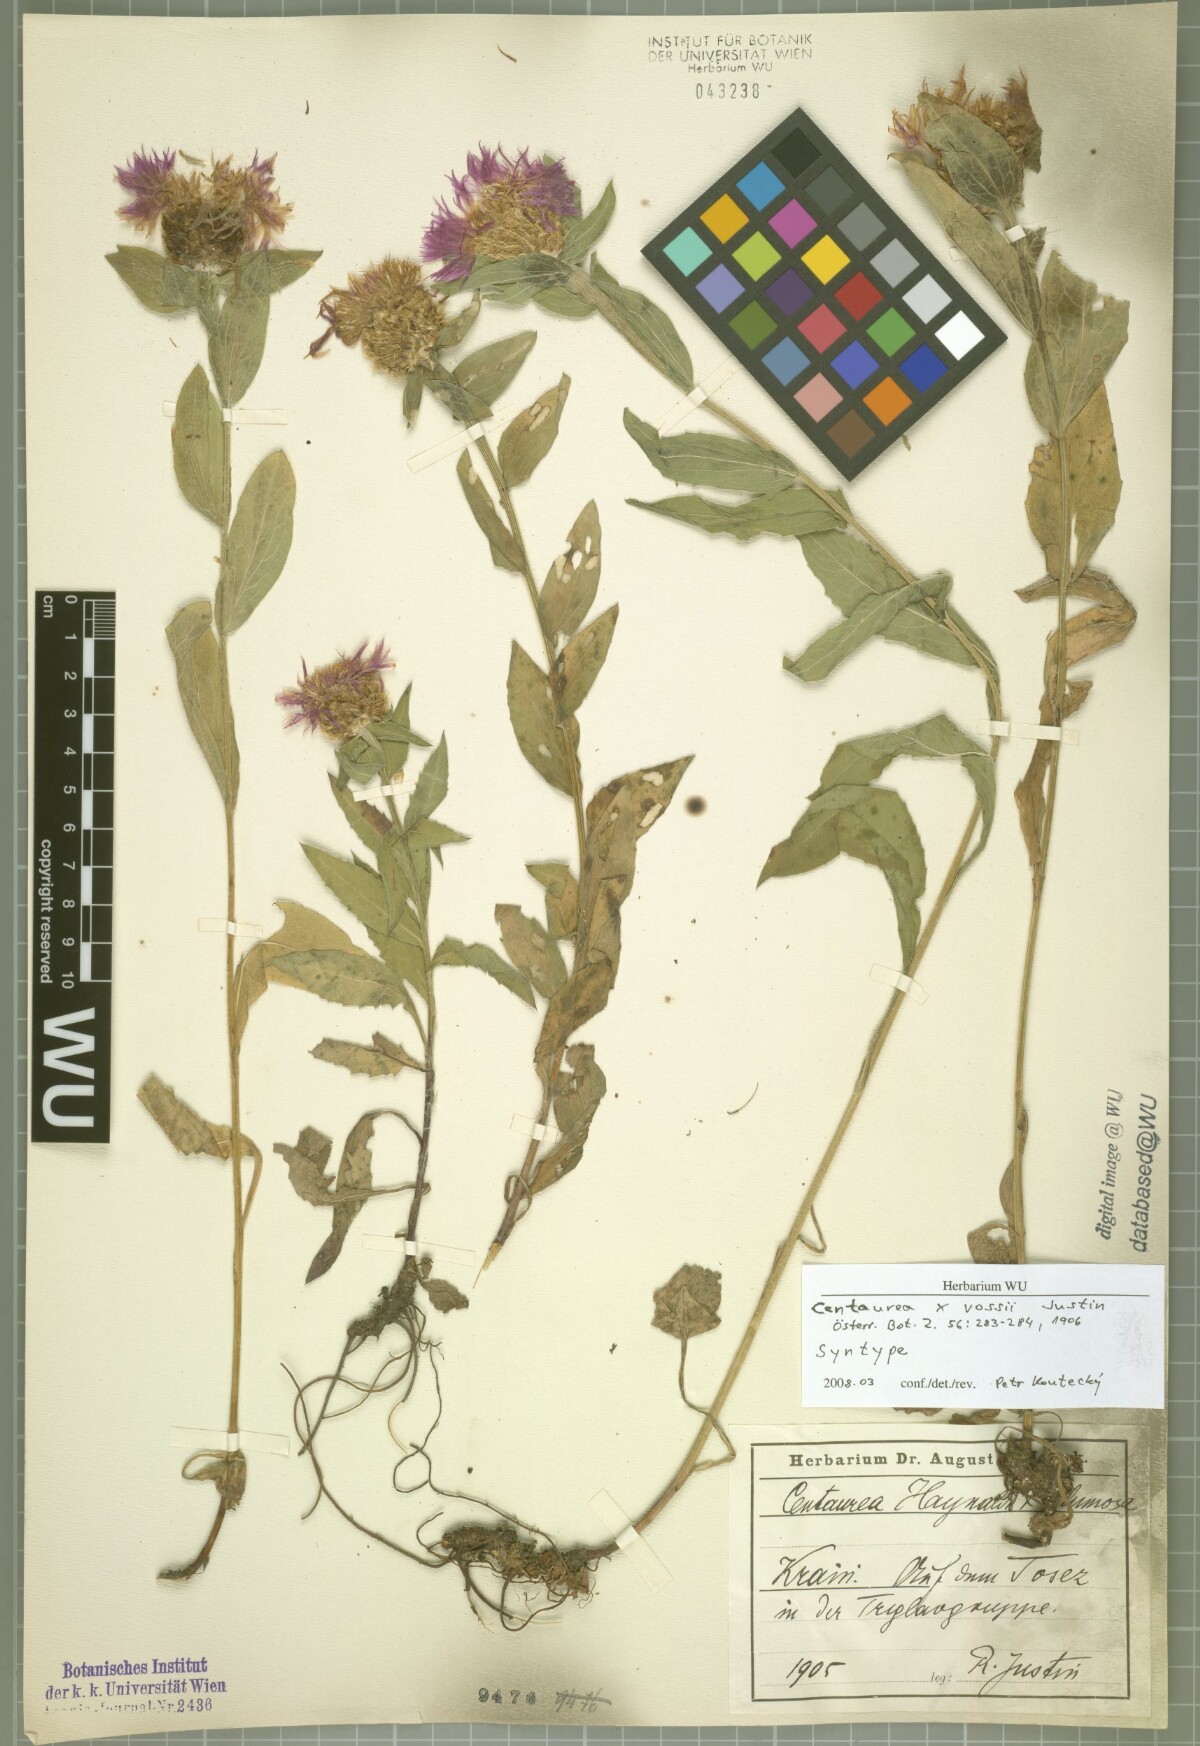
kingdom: Plantae
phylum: Tracheophyta
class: Magnoliopsida
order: Asterales
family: Asteraceae
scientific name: Asteraceae
